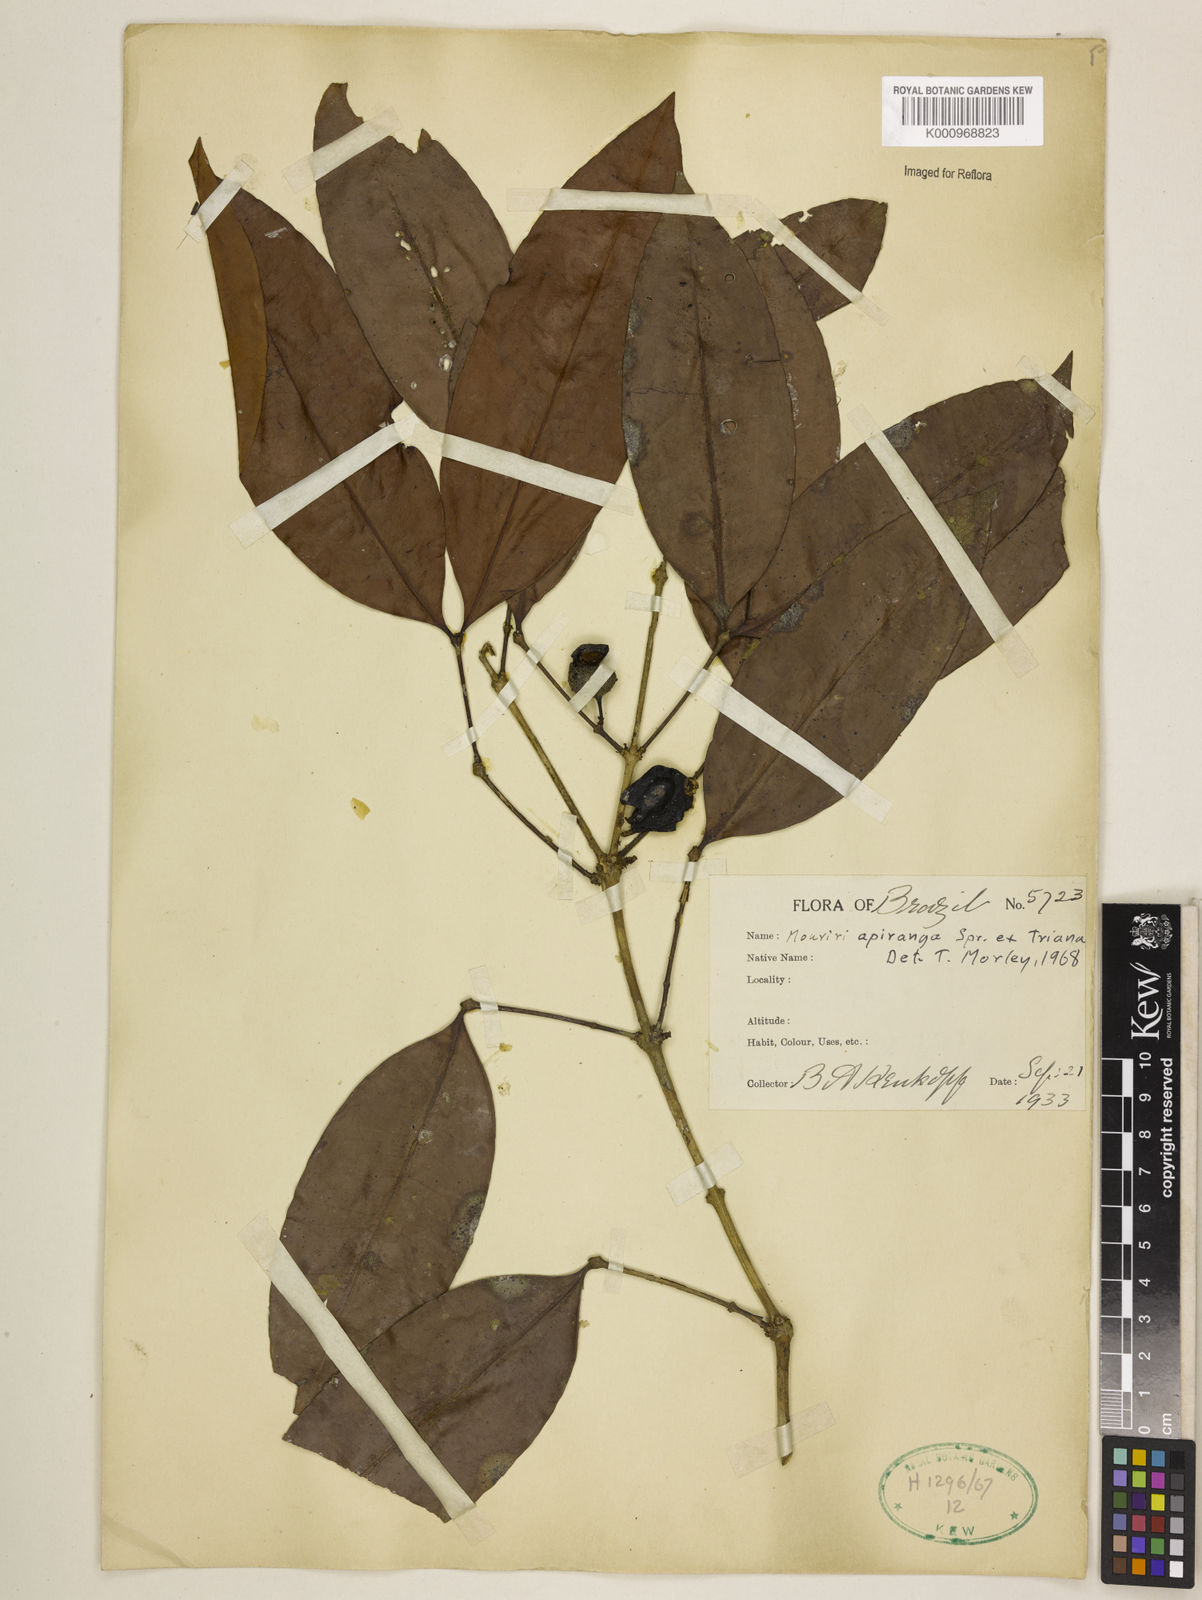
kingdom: Plantae
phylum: Tracheophyta
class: Magnoliopsida
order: Myrtales
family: Melastomataceae
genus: Mouriri
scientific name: Mouriri apiranga
